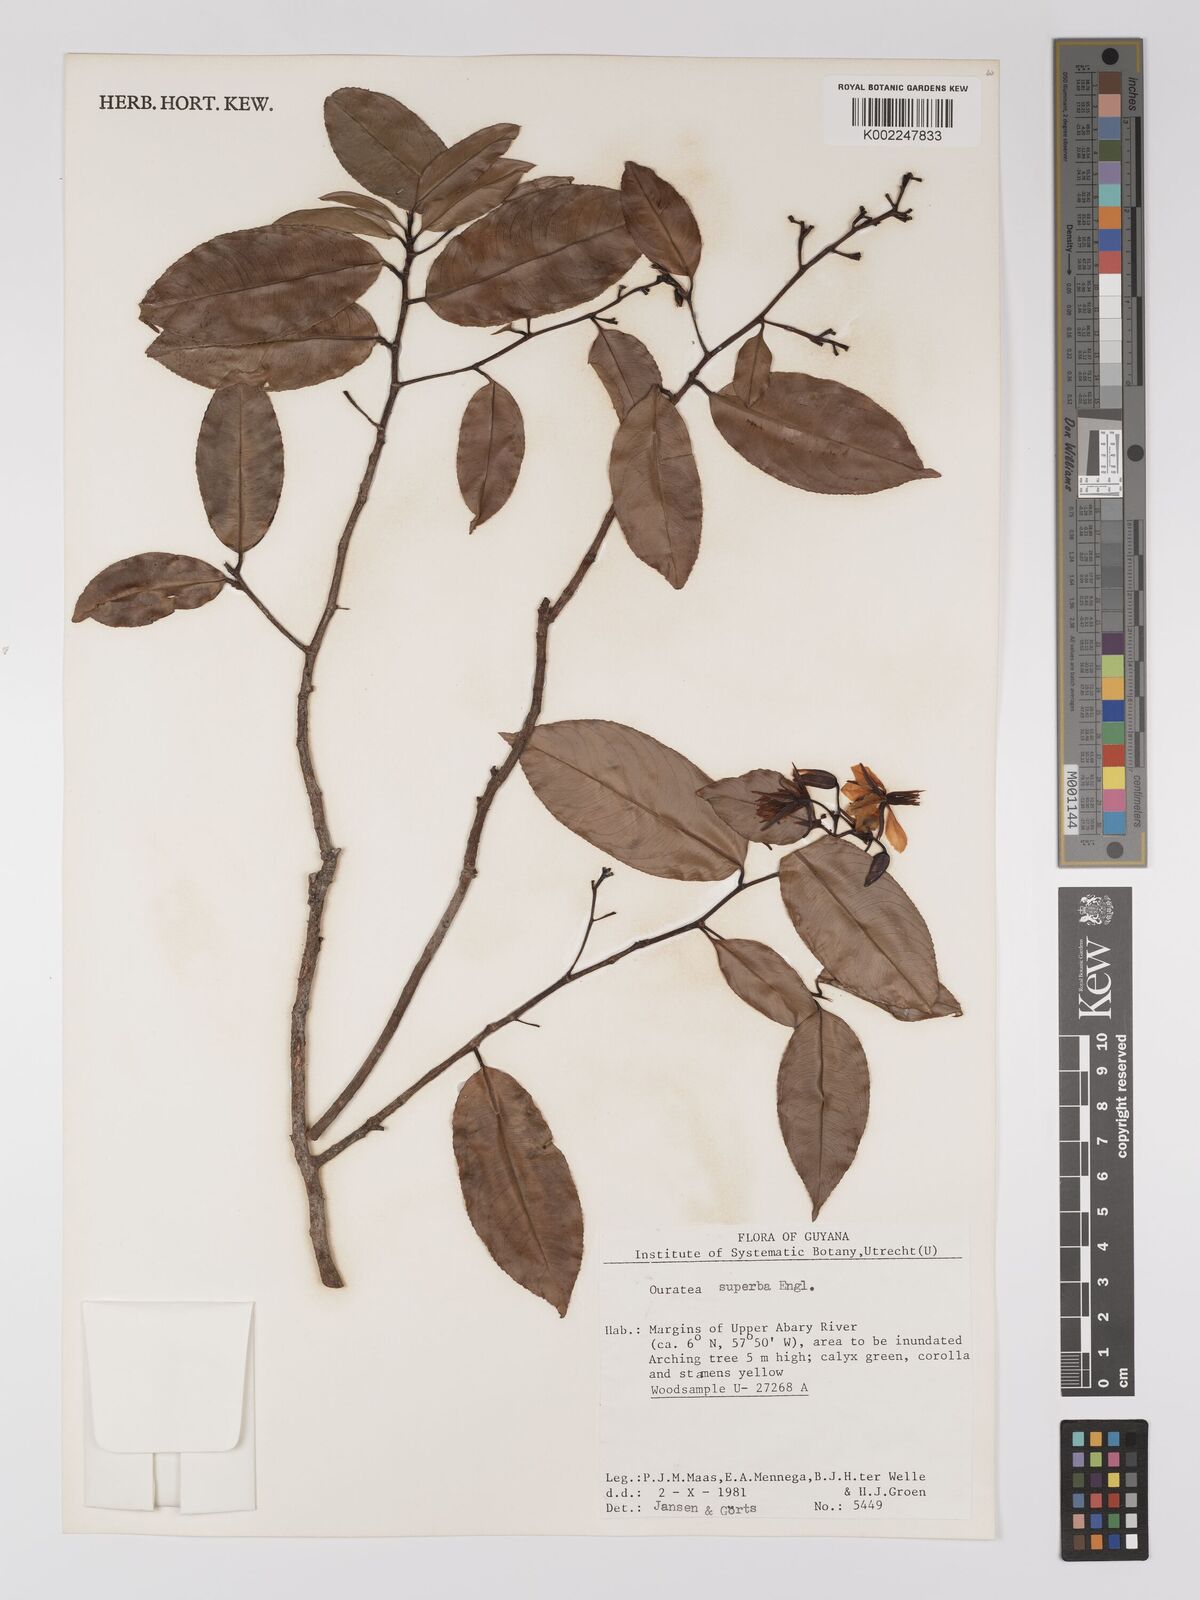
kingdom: Plantae
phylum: Tracheophyta
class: Magnoliopsida
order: Malpighiales
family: Ochnaceae
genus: Ouratea
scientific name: Ouratea superba
